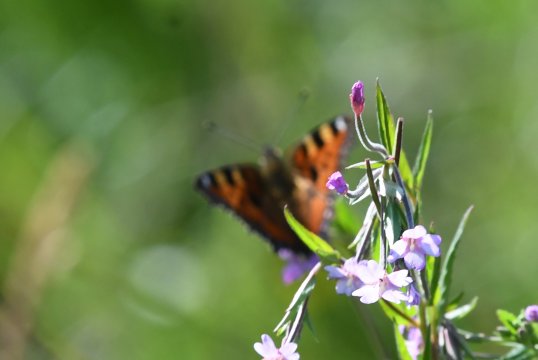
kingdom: Animalia
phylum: Arthropoda
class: Insecta
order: Lepidoptera
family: Nymphalidae
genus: Aglais
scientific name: Aglais urticae
